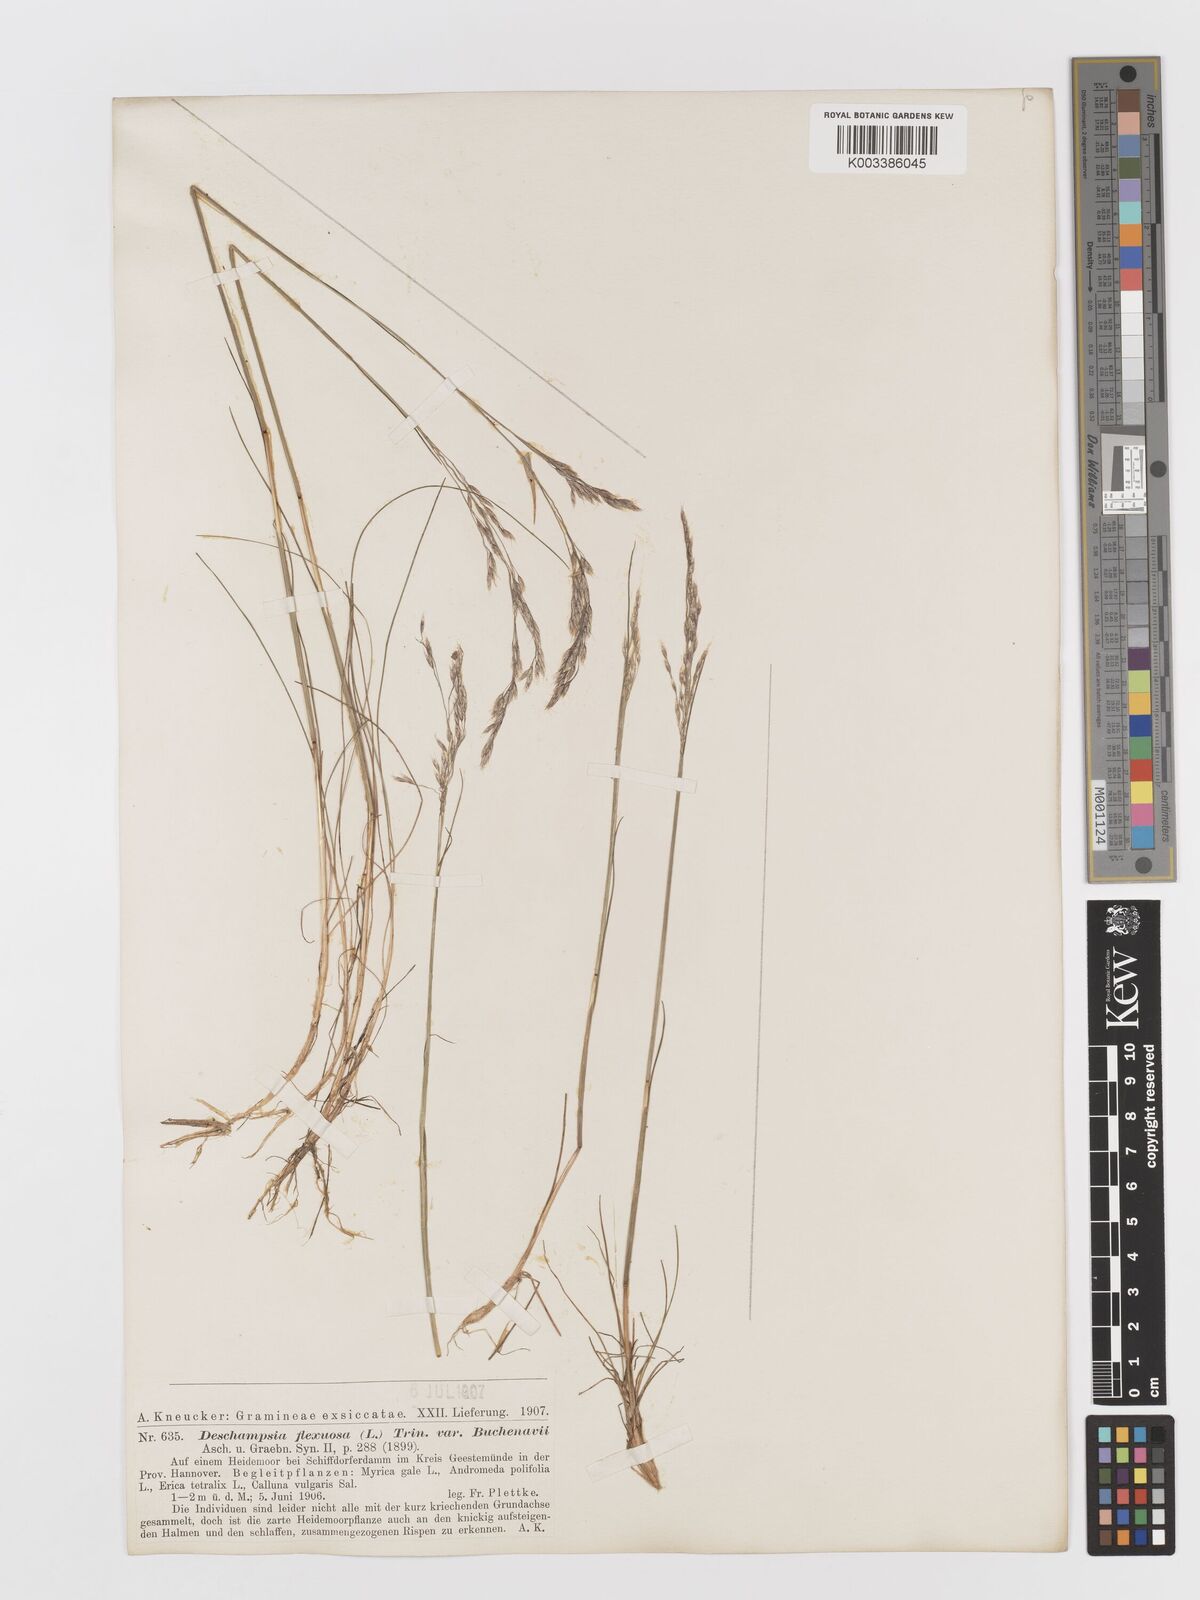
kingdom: Plantae
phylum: Tracheophyta
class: Liliopsida
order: Poales
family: Poaceae
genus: Avenella
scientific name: Avenella flexuosa
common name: Wavy hairgrass
